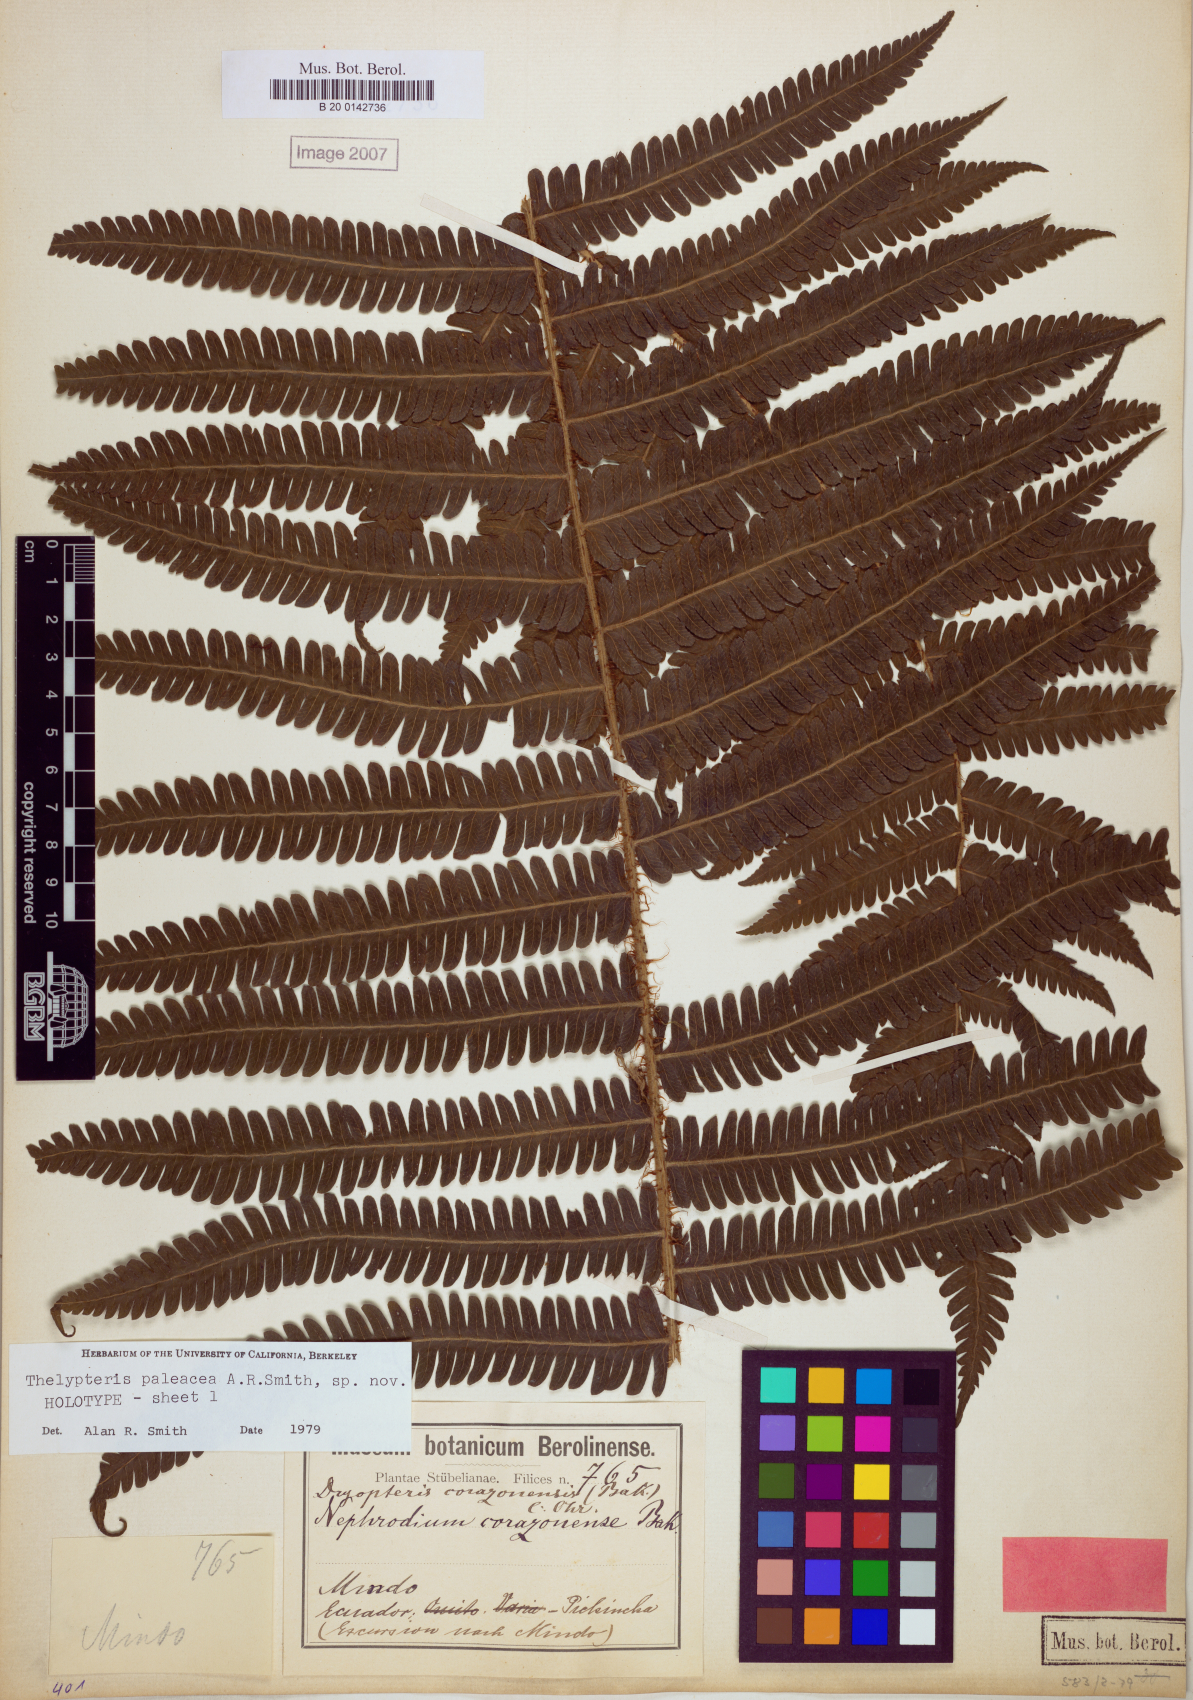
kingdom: Plantae
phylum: Tracheophyta
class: Polypodiopsida
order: Polypodiales
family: Thelypteridaceae
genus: Amauropelta
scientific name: Amauropelta paleacea
